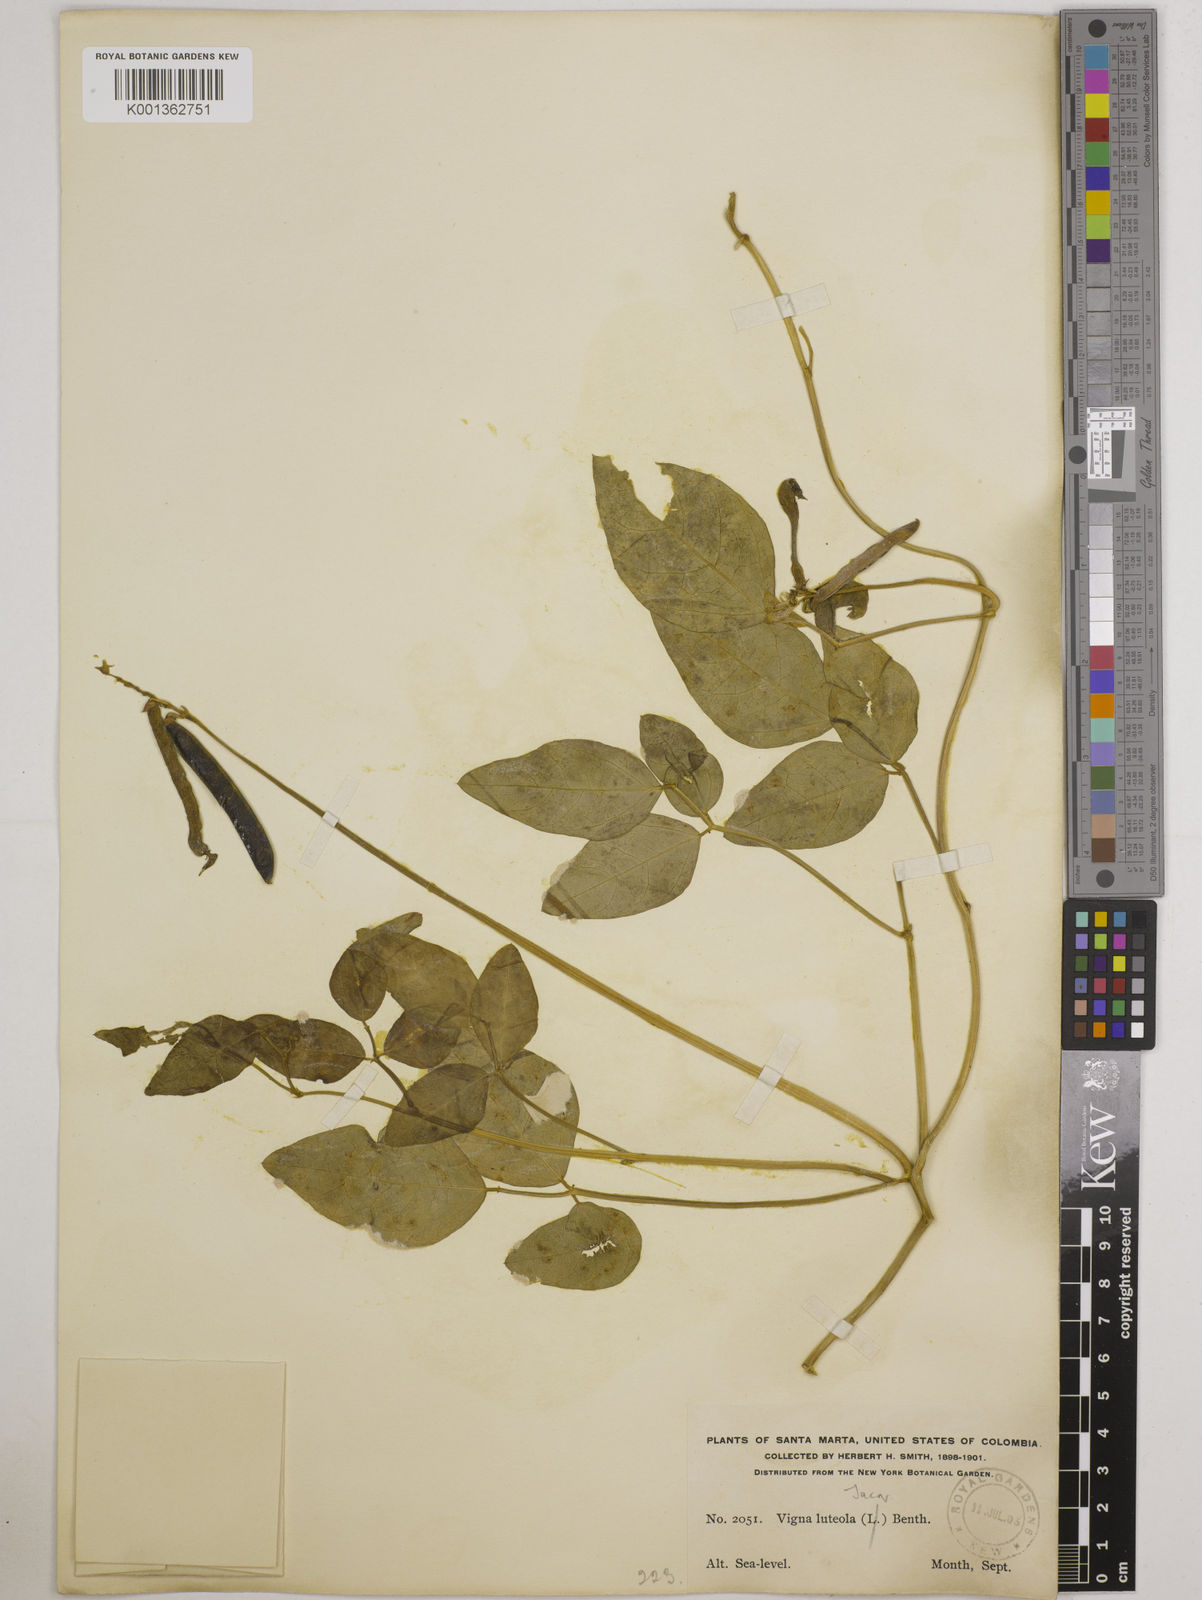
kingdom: Plantae
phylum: Tracheophyta
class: Magnoliopsida
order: Fabales
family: Fabaceae
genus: Vigna
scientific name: Vigna luteola
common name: Hairypod cowpea
